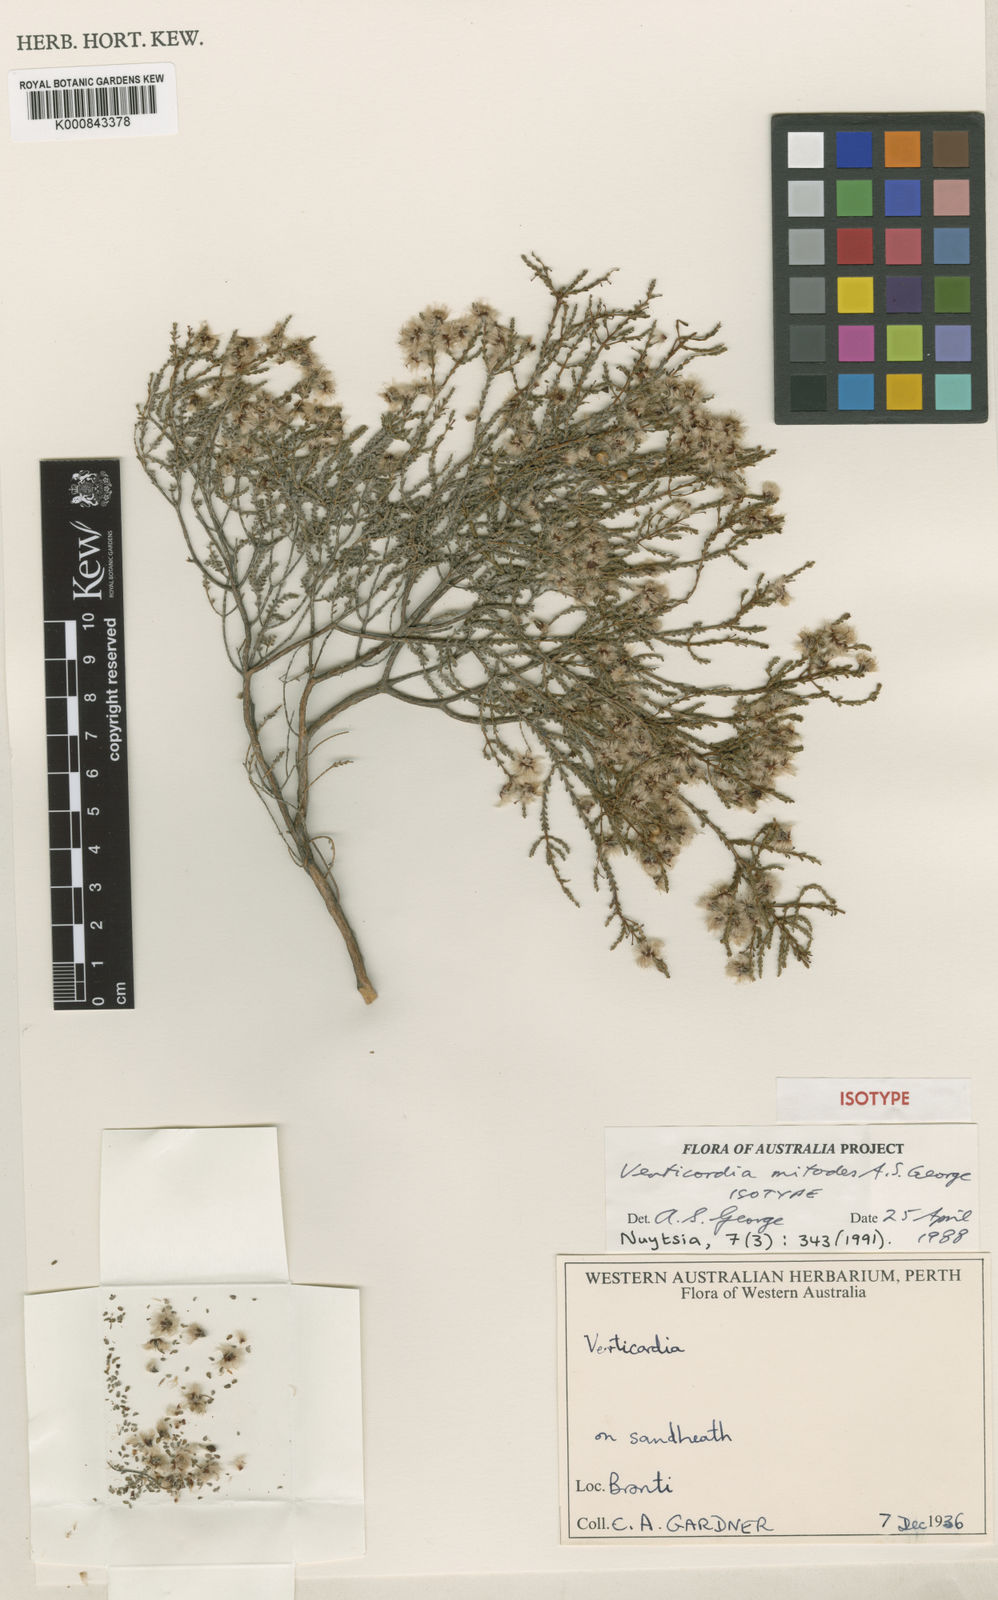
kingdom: Plantae
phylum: Tracheophyta
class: Magnoliopsida
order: Myrtales
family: Myrtaceae
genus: Verticordia
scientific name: Verticordia mitodes
